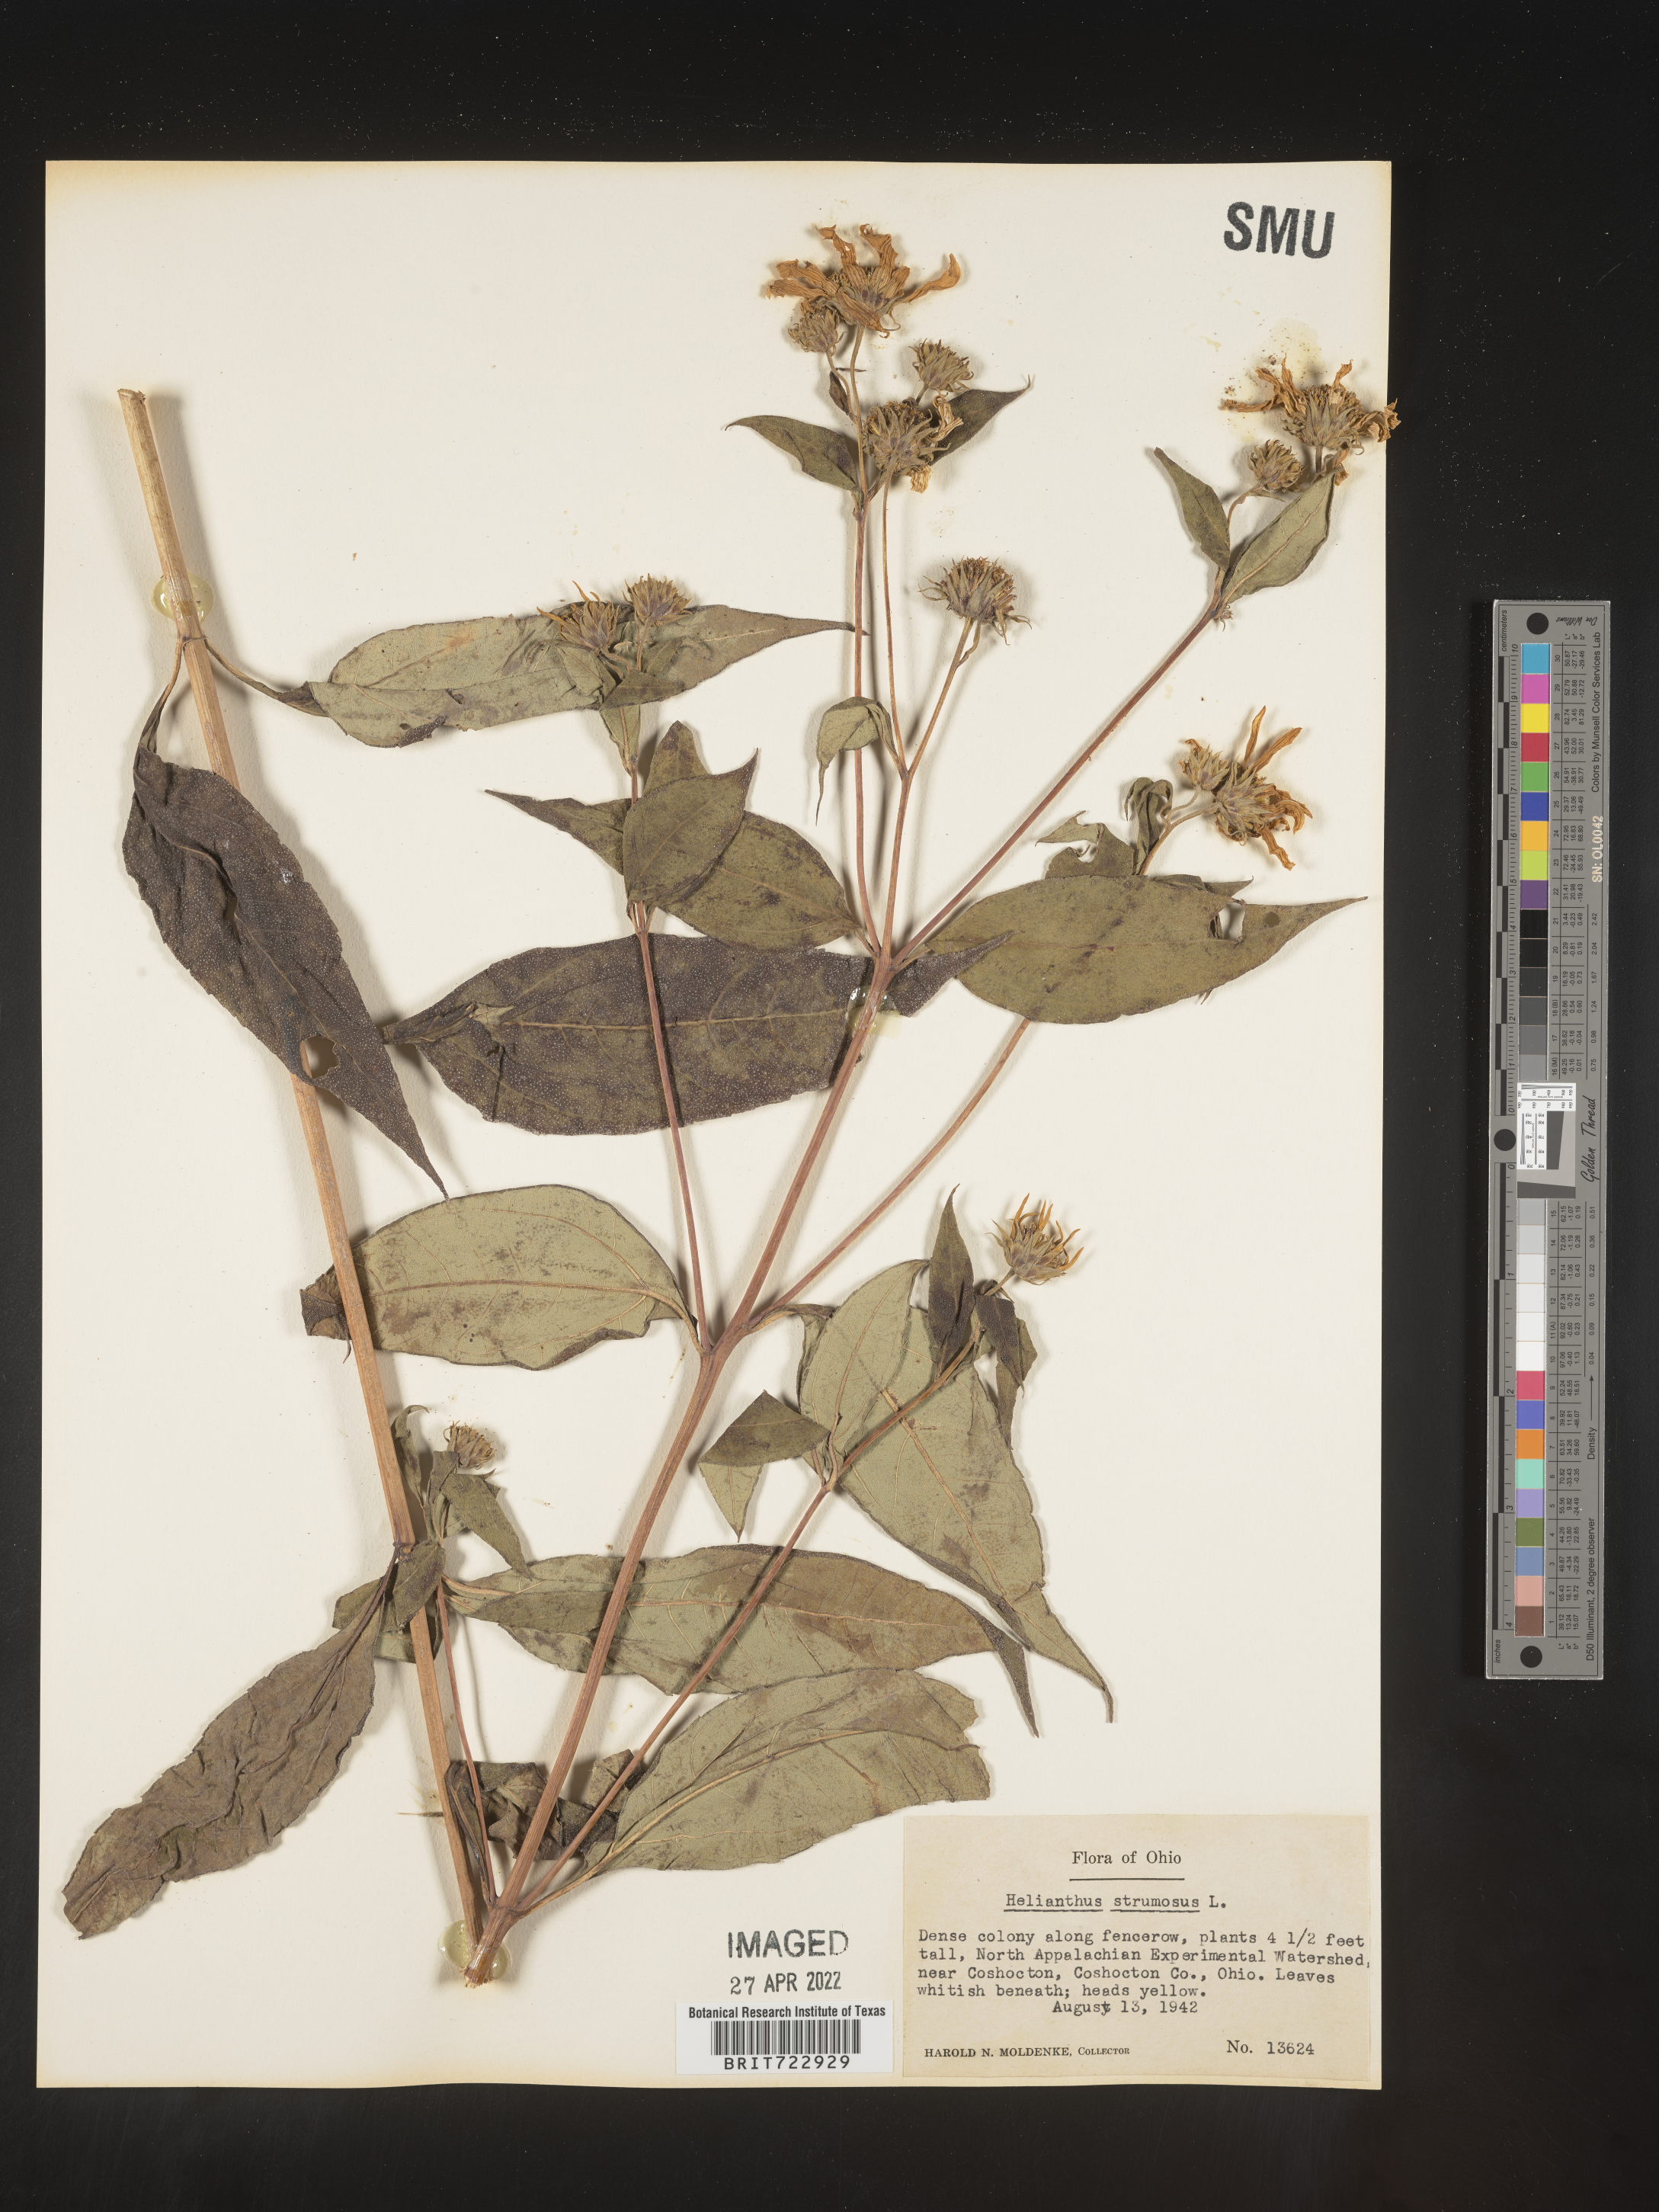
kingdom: Plantae
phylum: Tracheophyta
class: Magnoliopsida
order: Asterales
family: Asteraceae
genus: Helianthus
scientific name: Helianthus strumosus
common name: Pale-leaved sunflower
